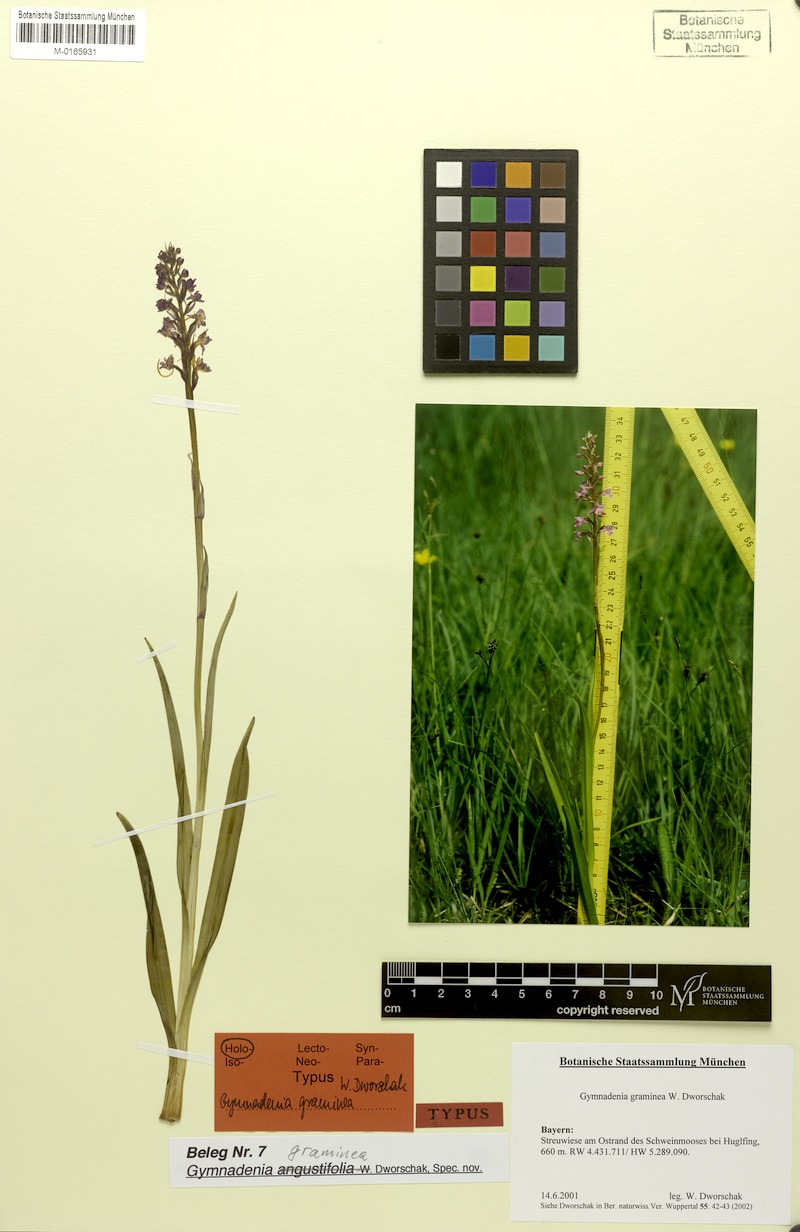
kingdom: Plantae
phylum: Tracheophyta
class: Liliopsida
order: Asparagales
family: Orchidaceae
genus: Gymnadenia
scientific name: Gymnadenia odoratissima
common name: Scented gymnadenia
